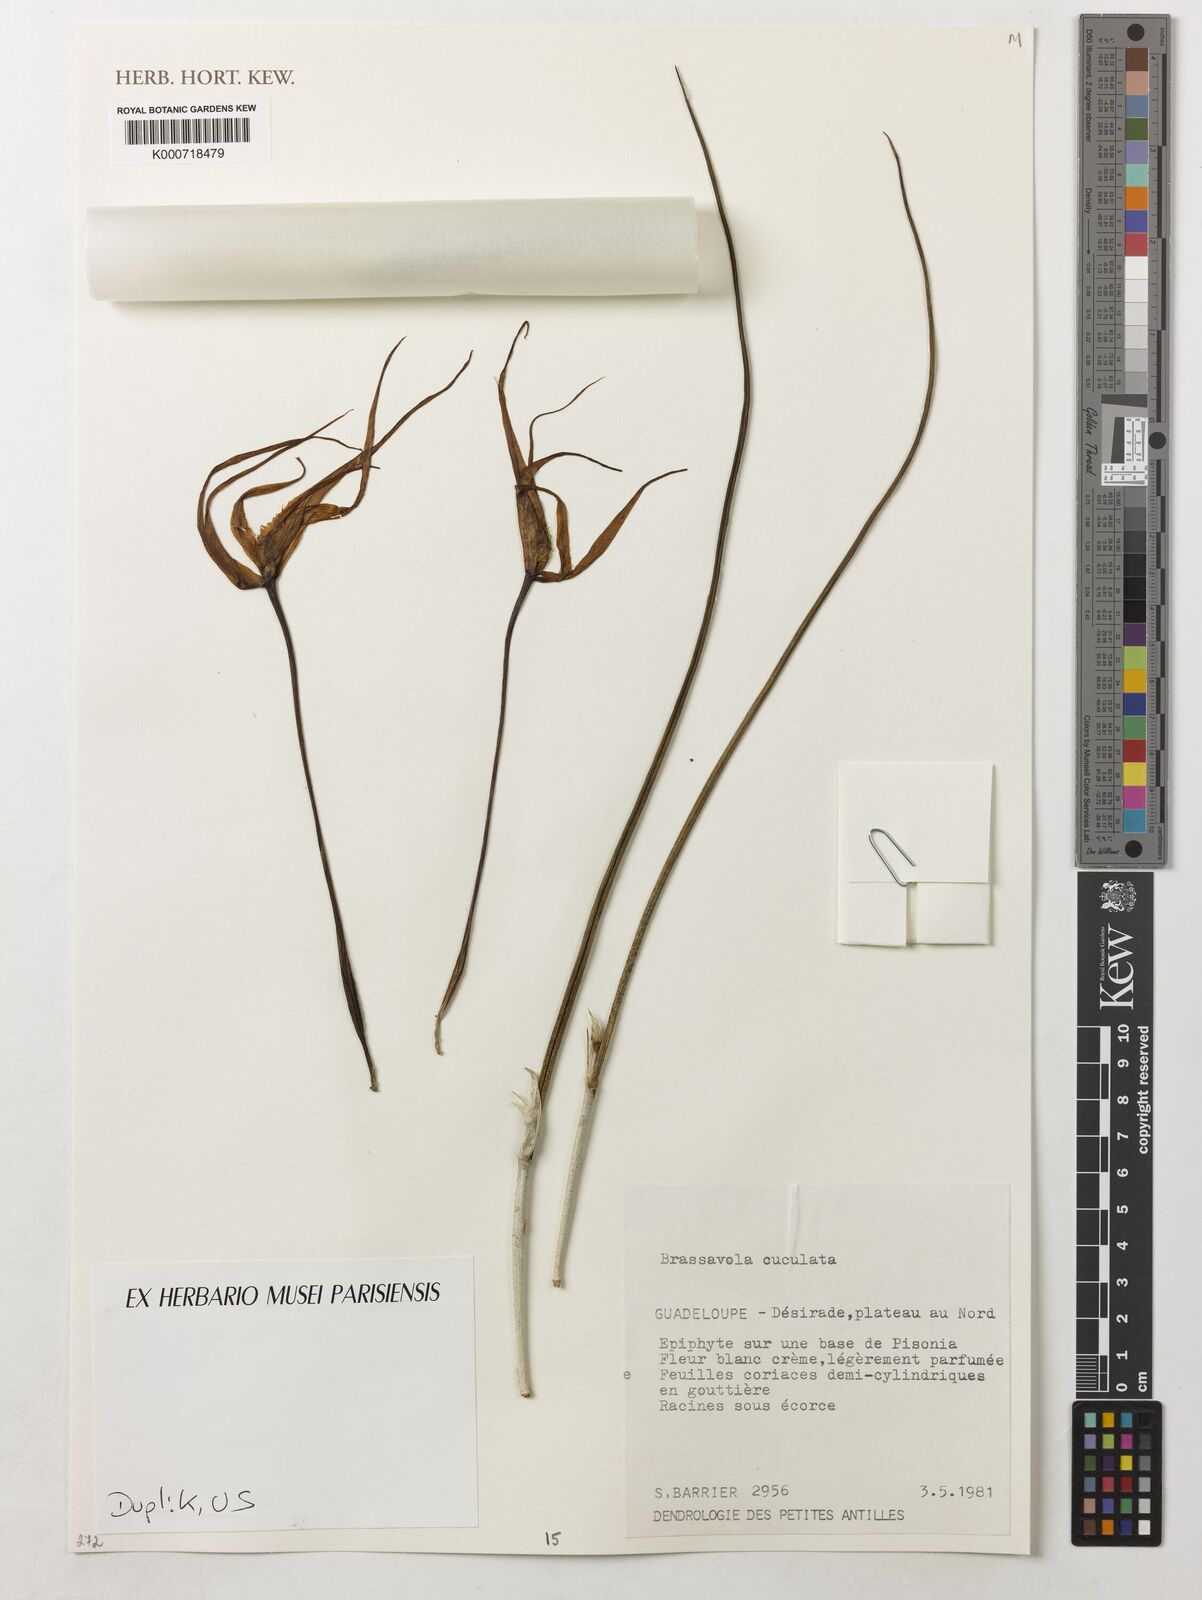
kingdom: Plantae
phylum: Tracheophyta
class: Liliopsida
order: Asparagales
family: Orchidaceae
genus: Brassavola
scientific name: Brassavola cucullata
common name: Daddy longlegs orchid
